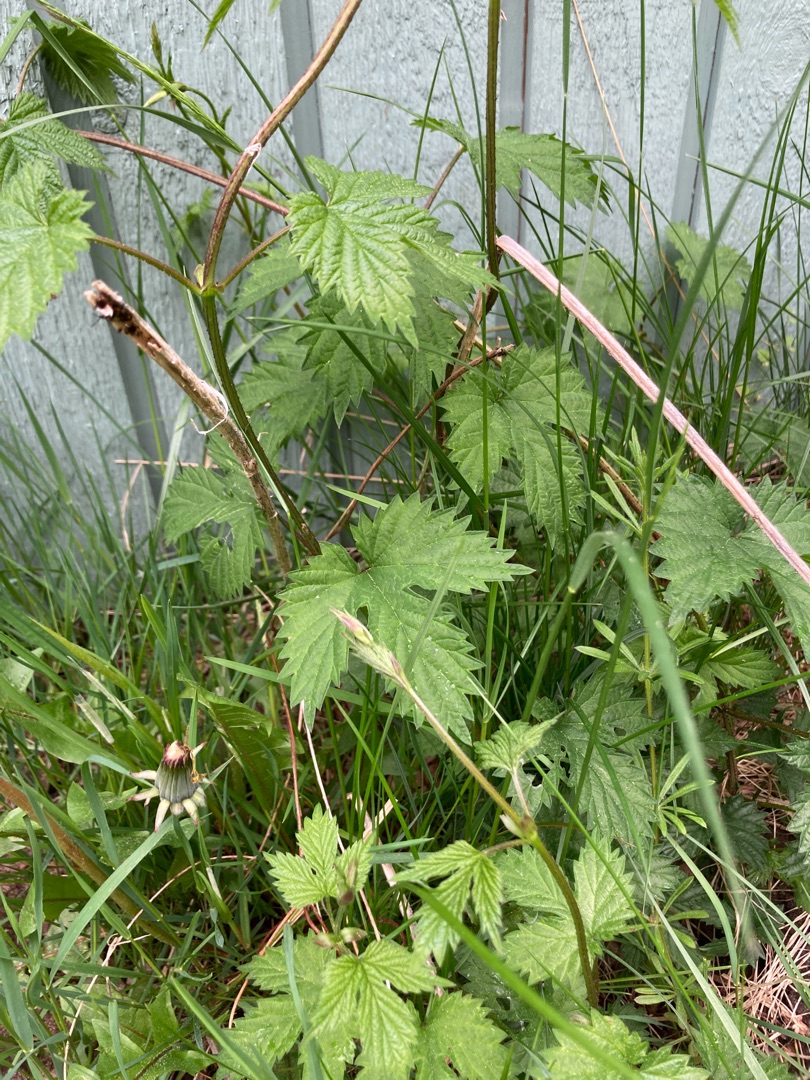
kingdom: Plantae
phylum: Tracheophyta
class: Magnoliopsida
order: Rosales
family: Cannabaceae
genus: Humulus
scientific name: Humulus lupulus
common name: Humle
